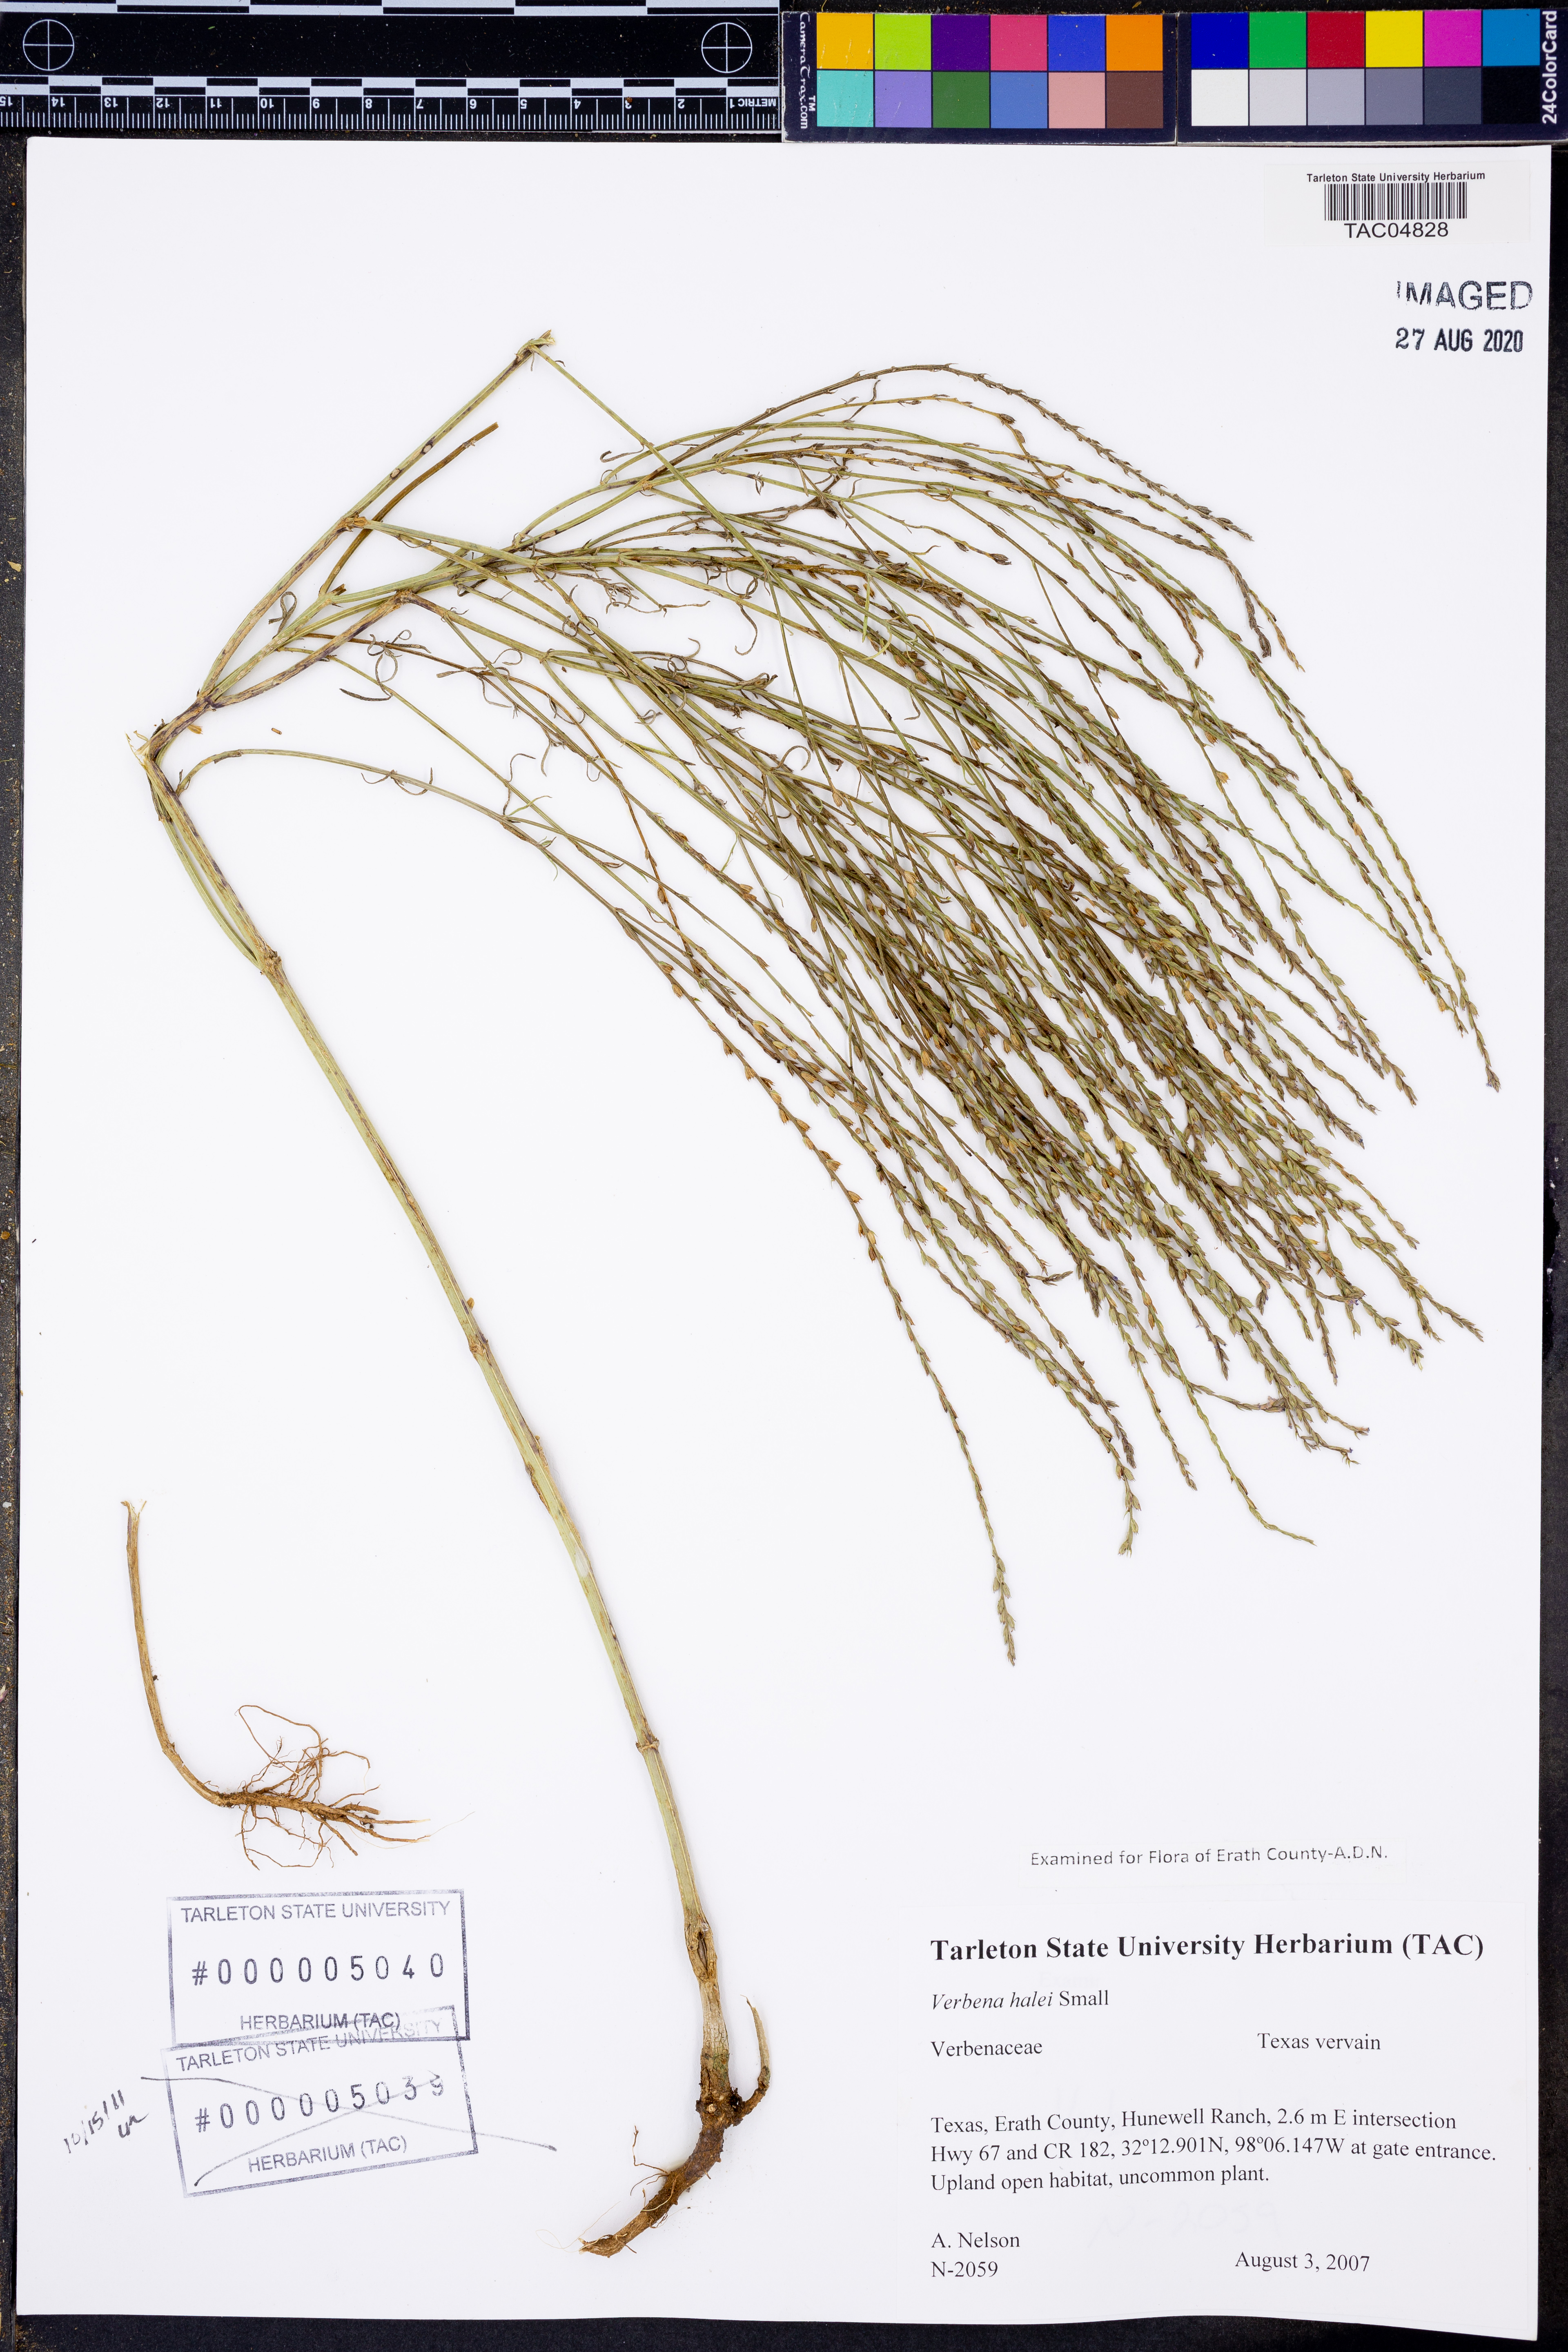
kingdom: Plantae
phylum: Tracheophyta
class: Magnoliopsida
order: Lamiales
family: Verbenaceae
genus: Verbena
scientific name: Verbena halei
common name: Texas vervain
